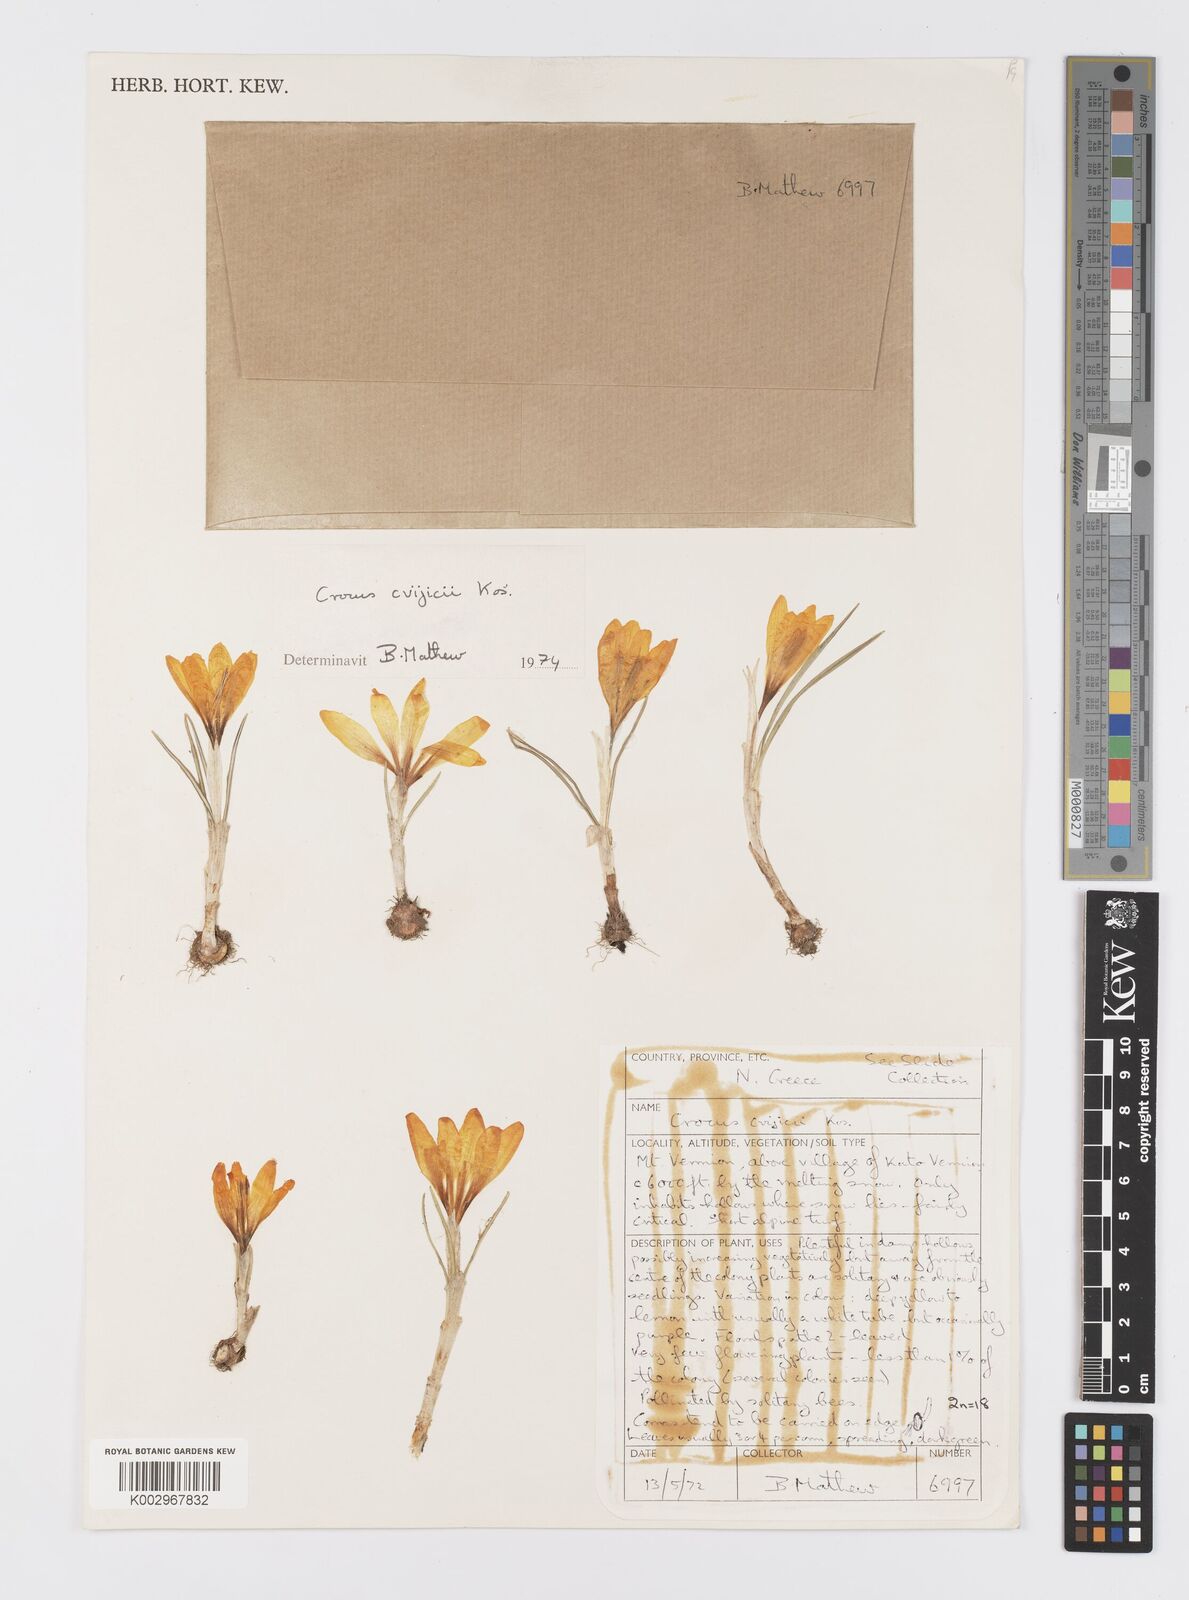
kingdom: Plantae
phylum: Tracheophyta
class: Liliopsida
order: Asparagales
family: Iridaceae
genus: Crocus
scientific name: Crocus cvijicii
